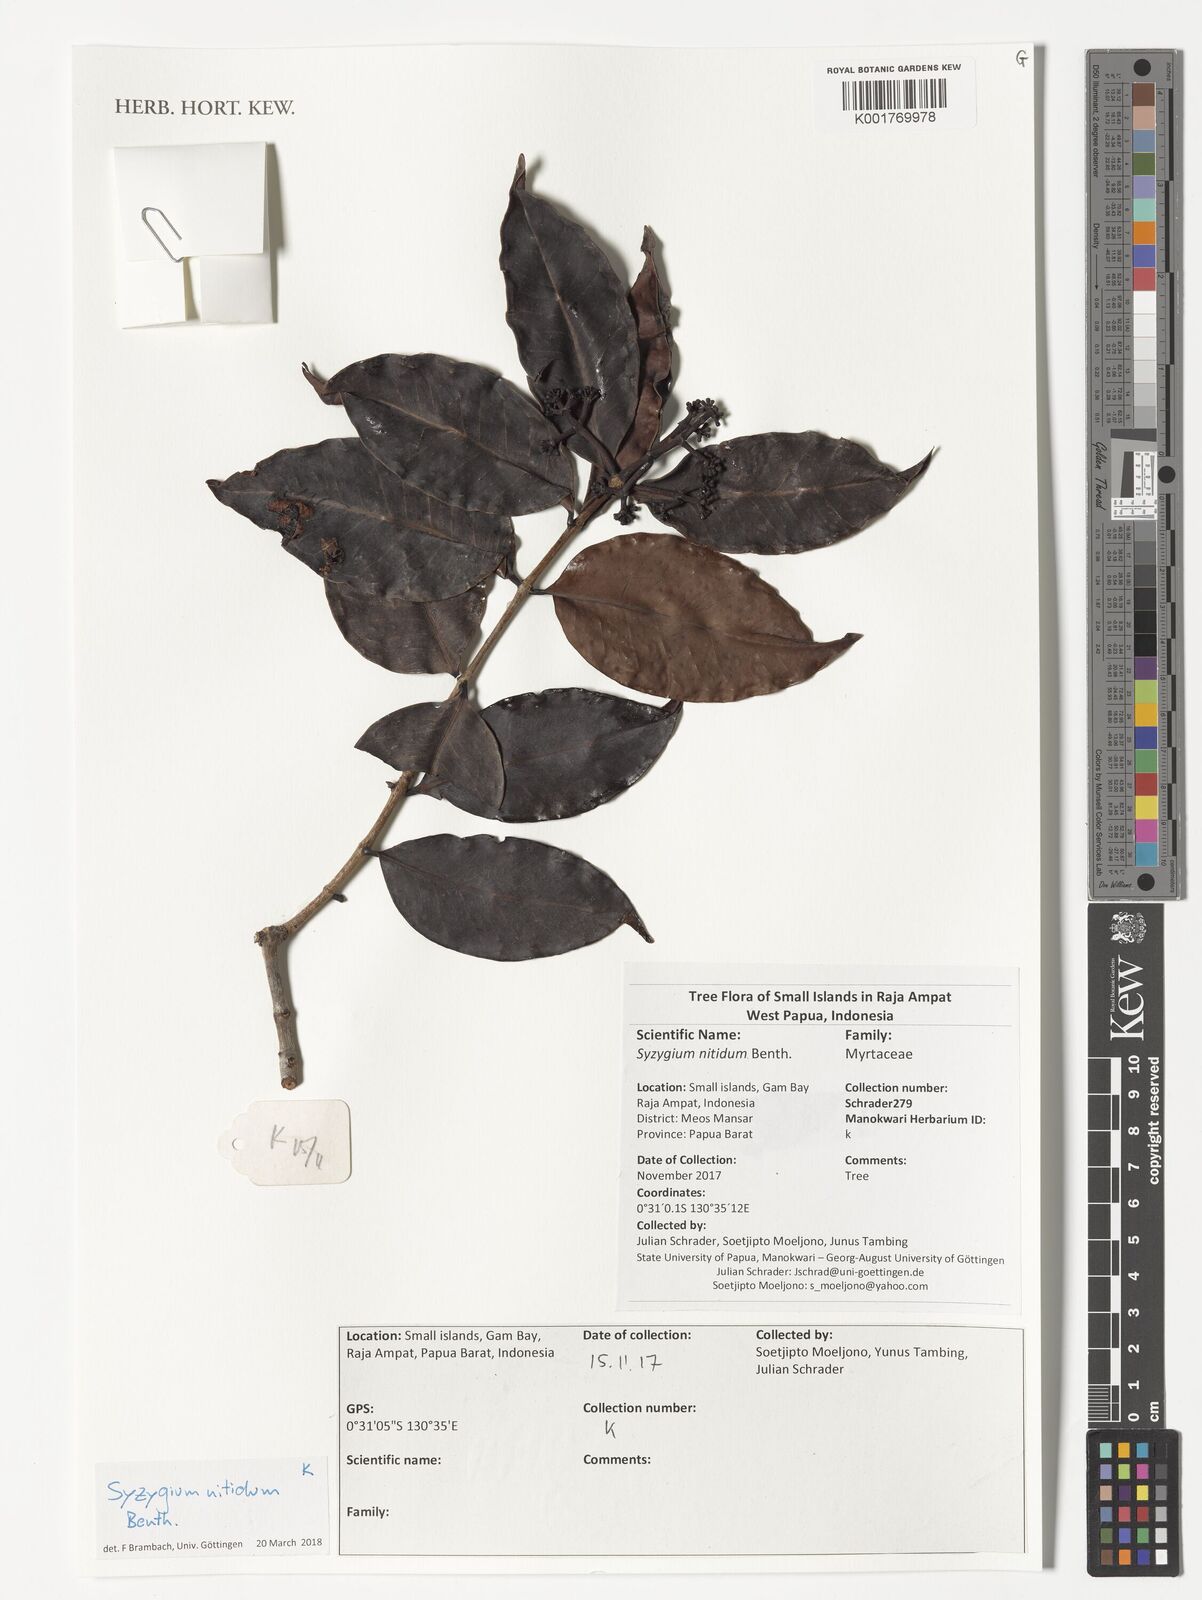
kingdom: Plantae
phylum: Tracheophyta
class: Magnoliopsida
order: Myrtales
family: Myrtaceae
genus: Syzygium
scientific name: Syzygium nitidum
